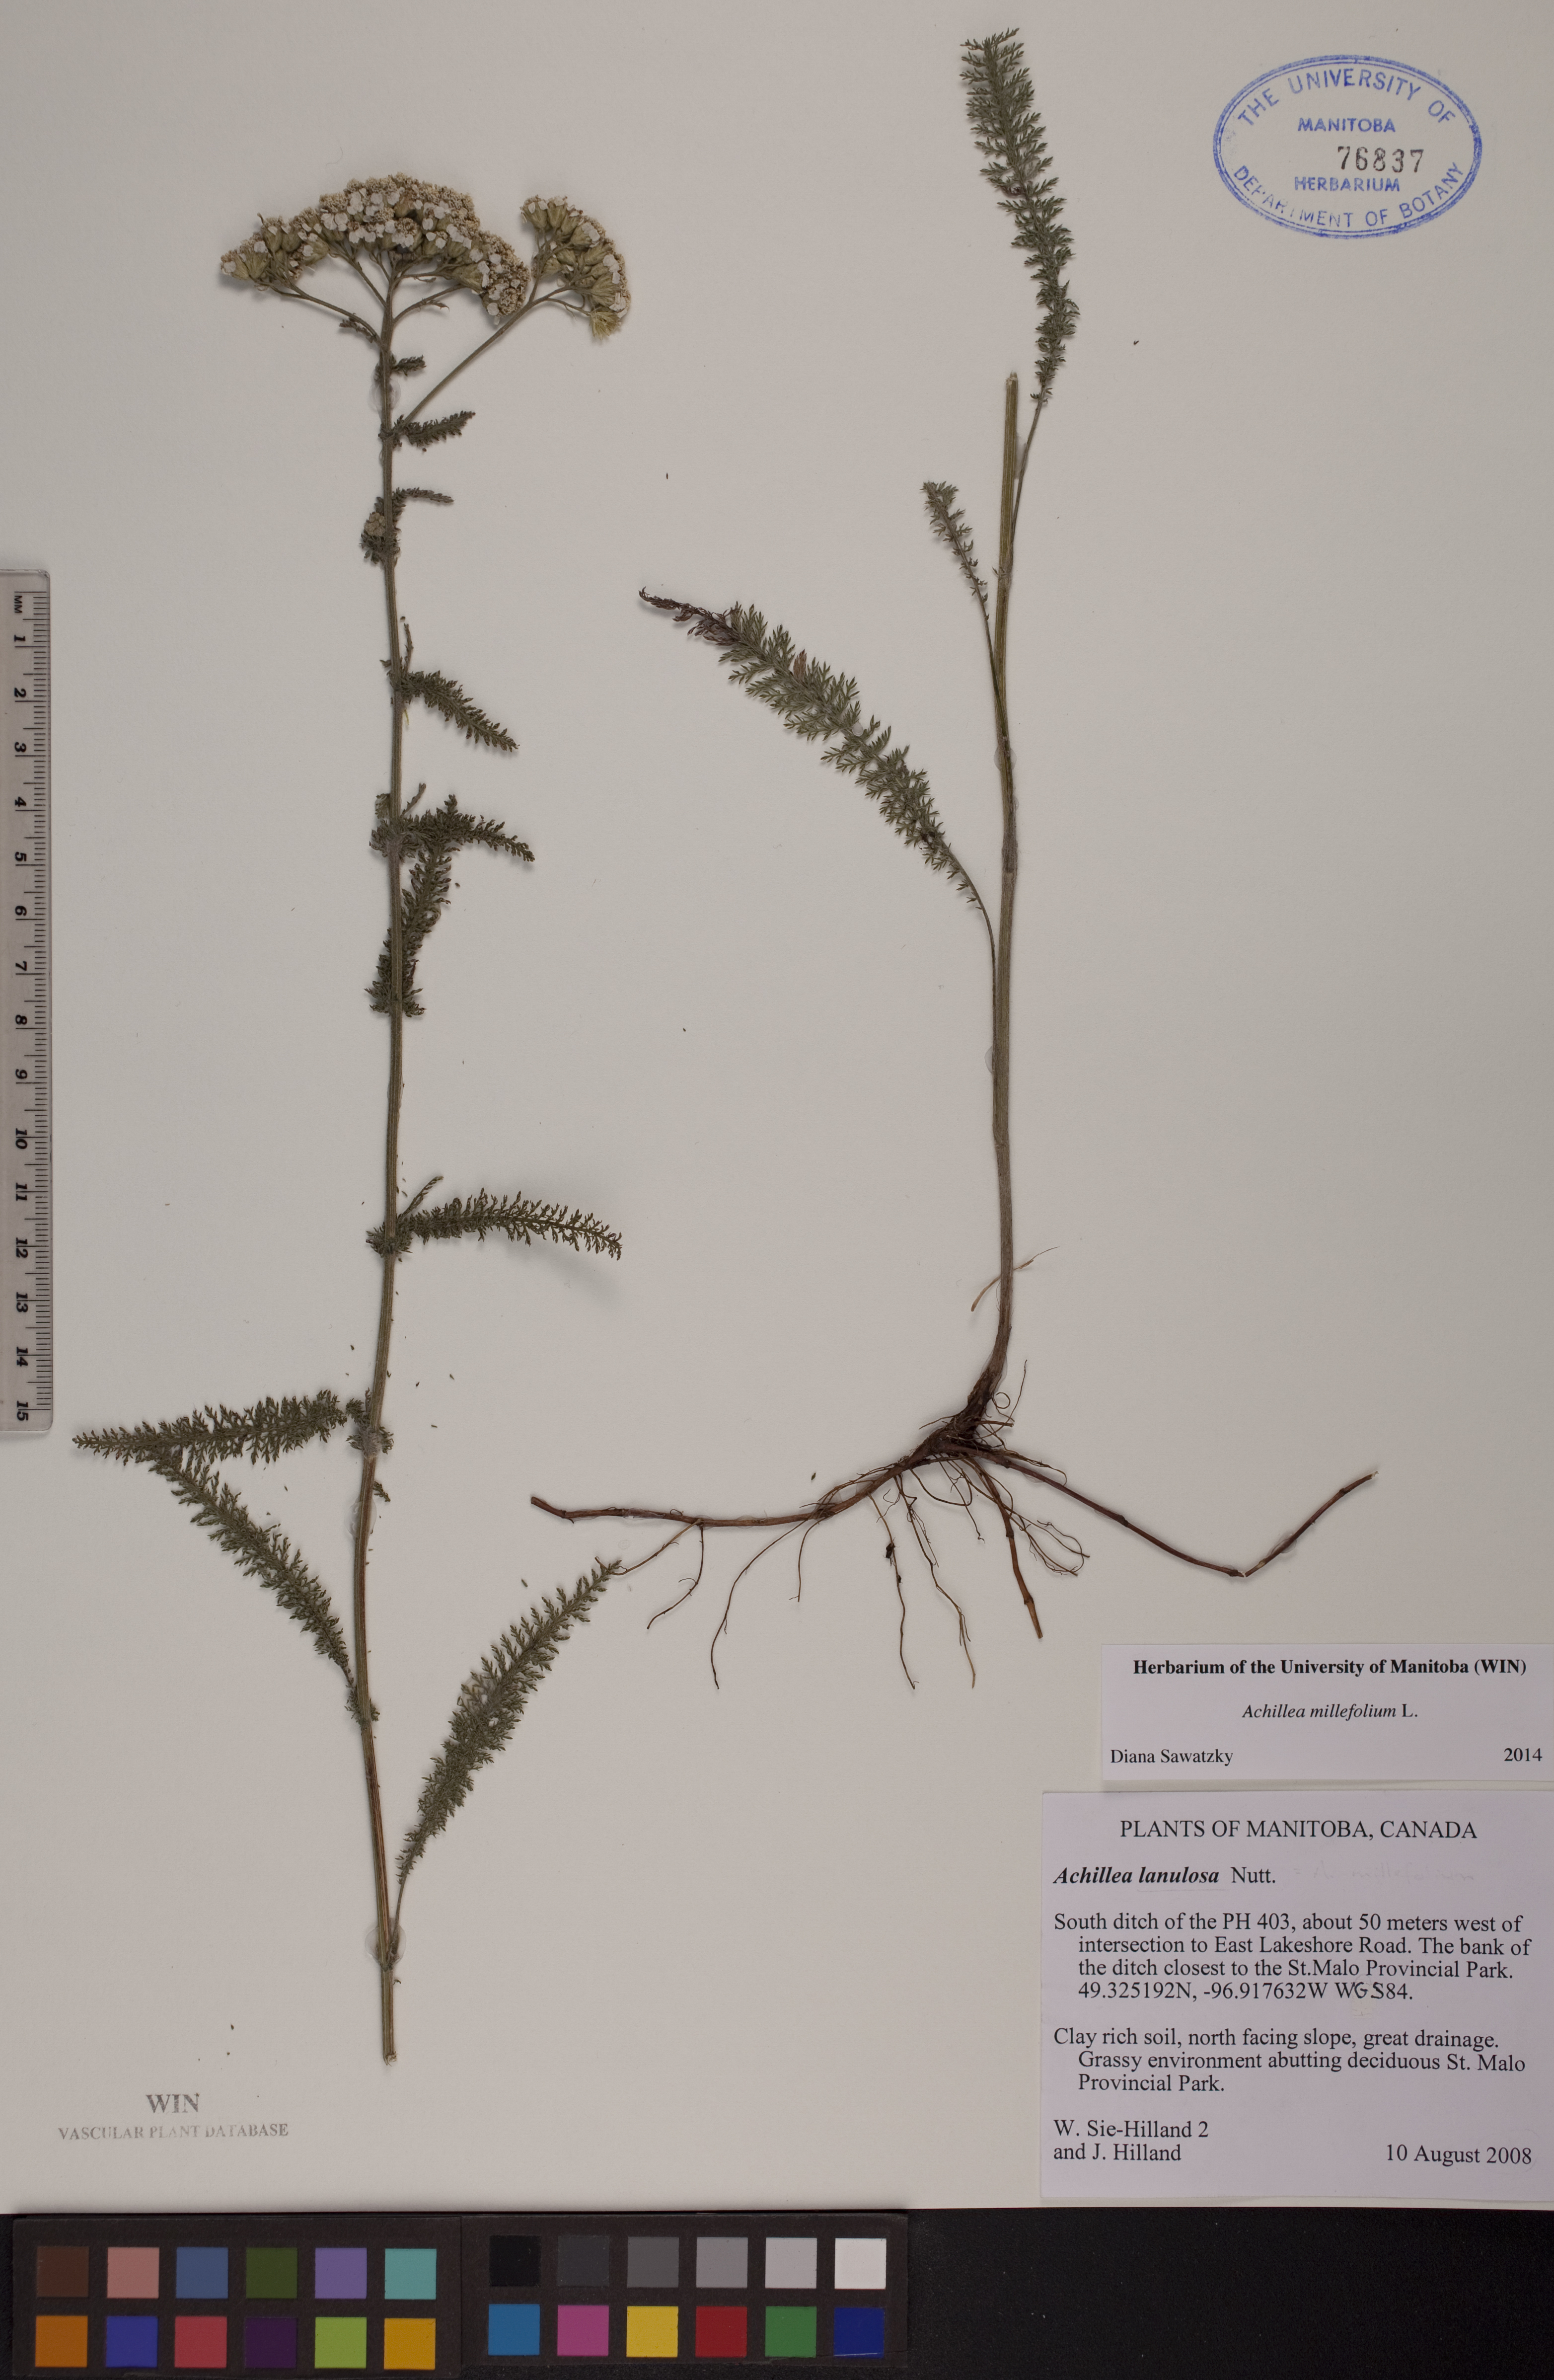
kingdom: Plantae
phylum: Tracheophyta
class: Magnoliopsida
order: Asterales
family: Asteraceae
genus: Achillea
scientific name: Achillea millefolium
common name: Yarrow
